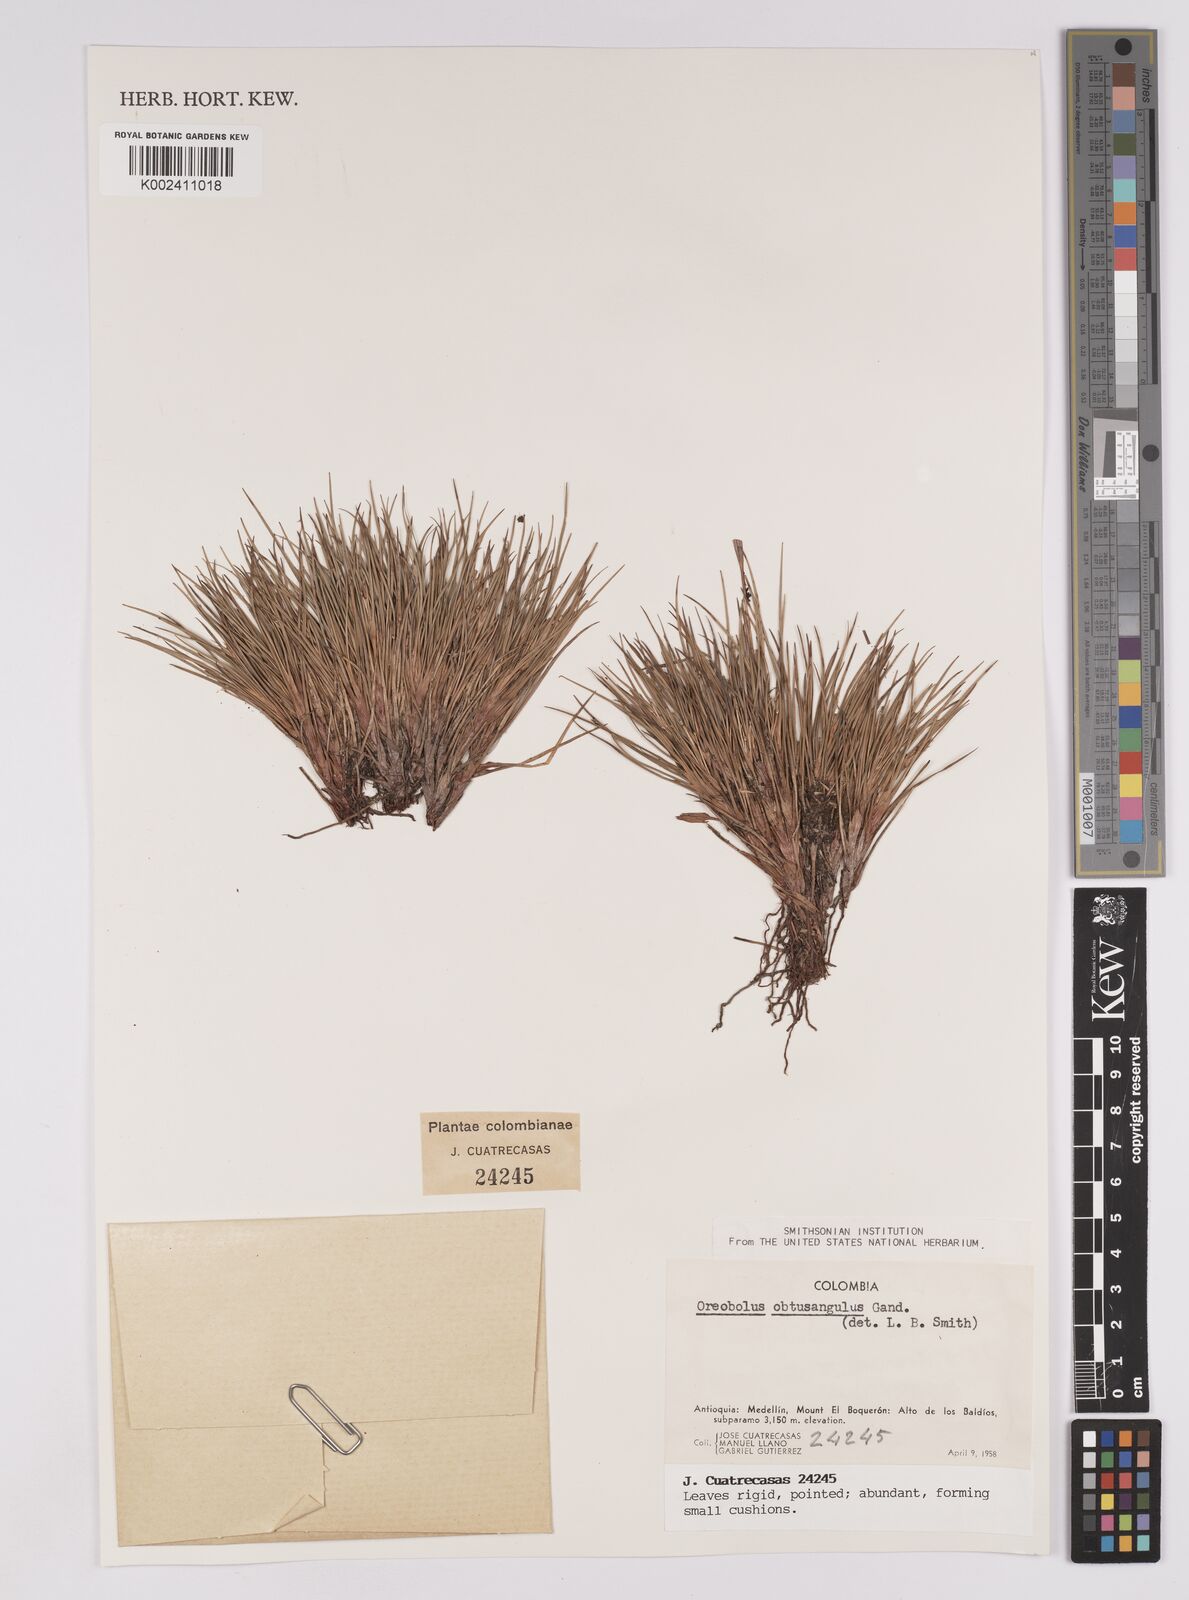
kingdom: Plantae
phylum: Tracheophyta
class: Liliopsida
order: Poales
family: Cyperaceae
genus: Oreobolus
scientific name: Oreobolus obtusangulus
